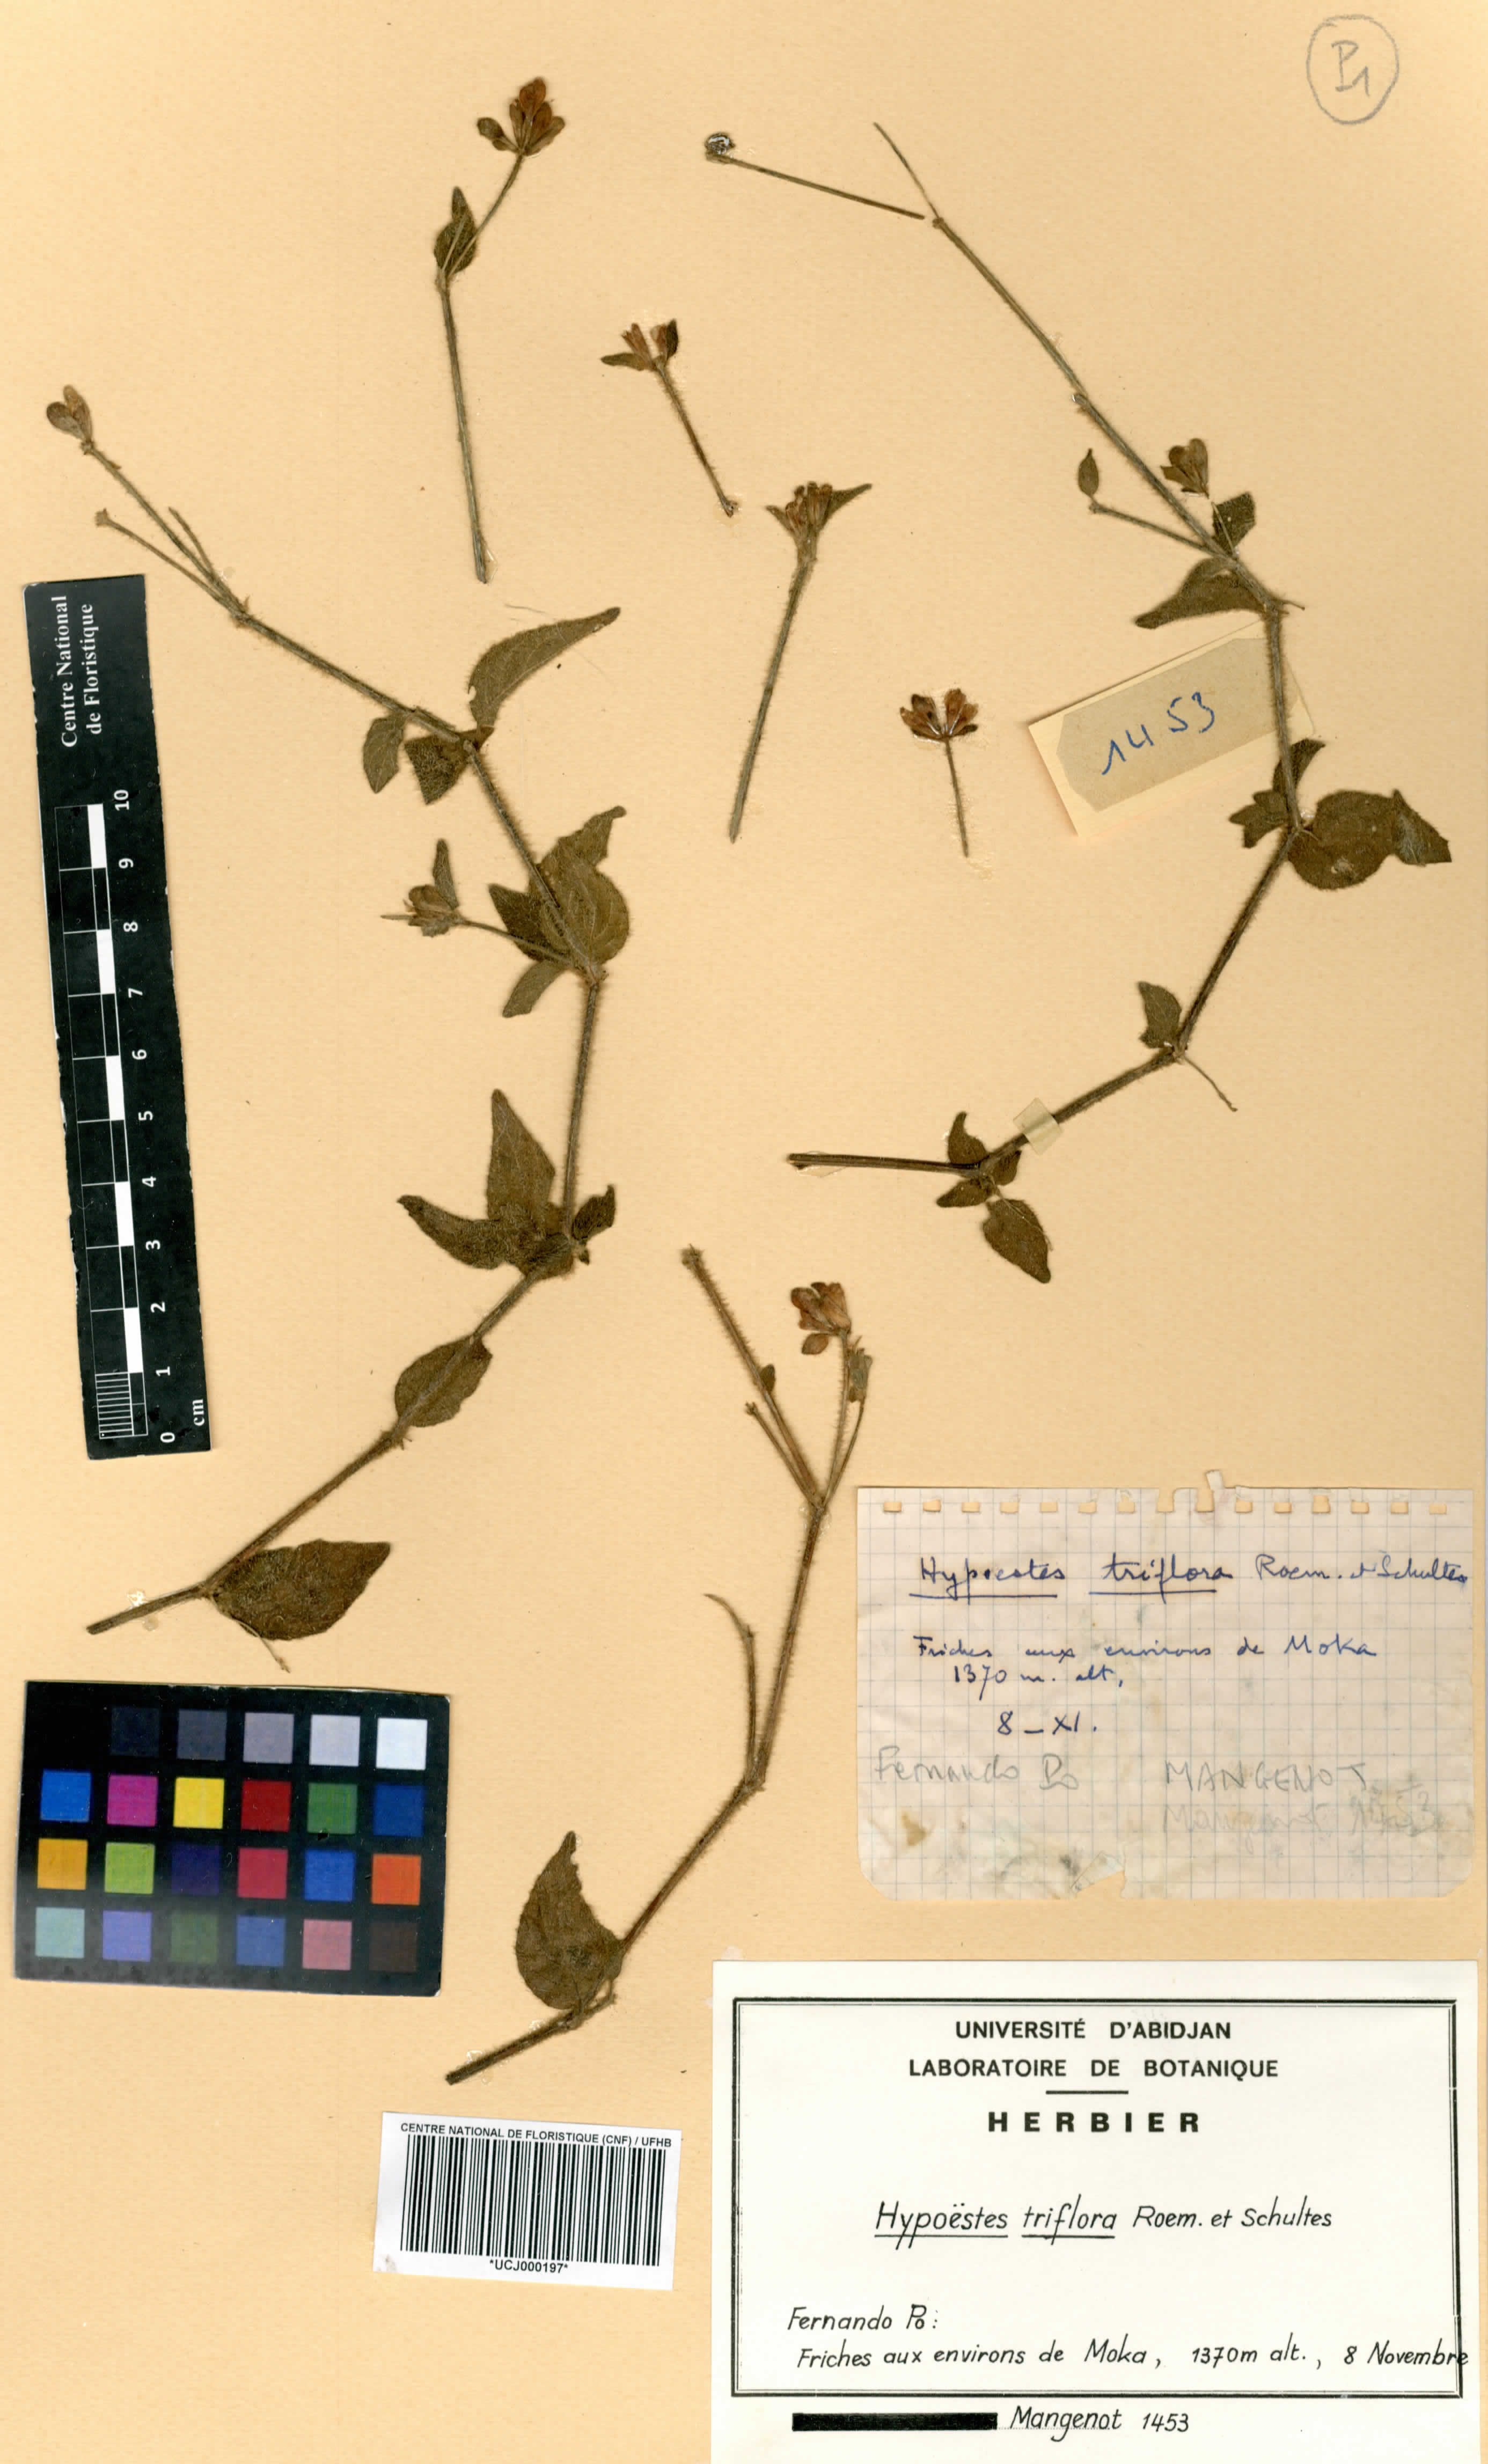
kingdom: Plantae
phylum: Tracheophyta
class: Magnoliopsida
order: Lamiales
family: Acanthaceae
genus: Hypoestes
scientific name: Hypoestes triflora
